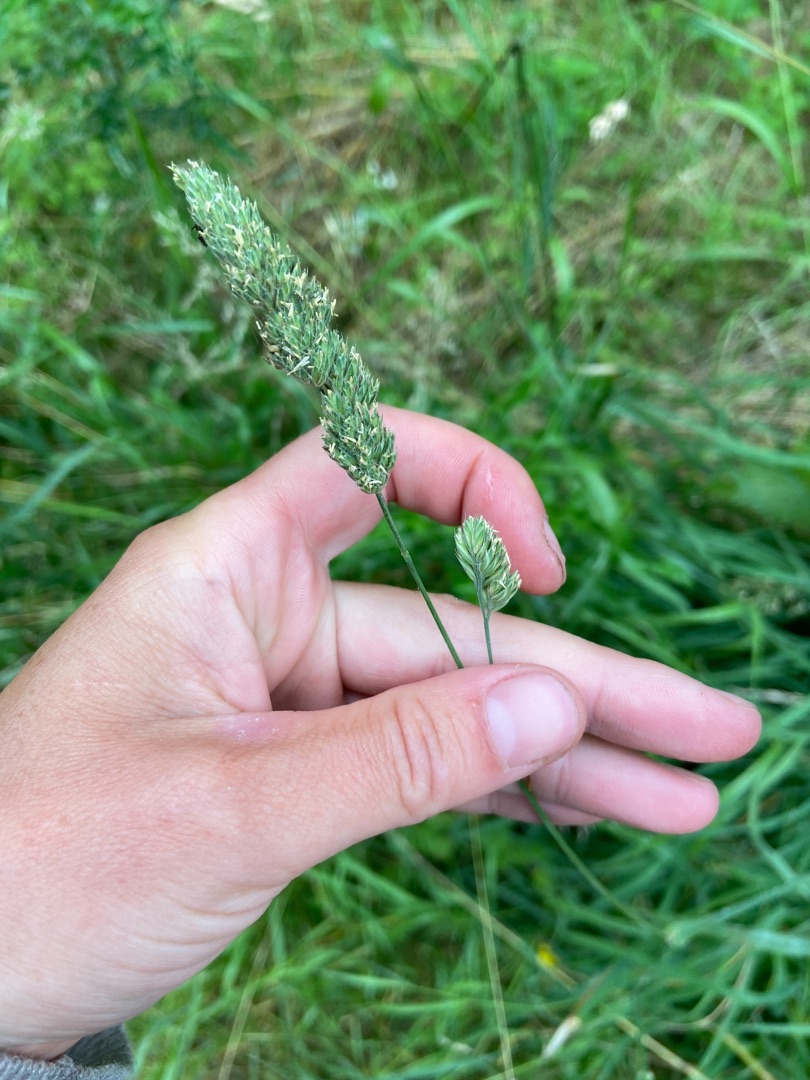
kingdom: Plantae
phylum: Tracheophyta
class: Liliopsida
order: Poales
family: Poaceae
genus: Dactylis
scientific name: Dactylis glomerata
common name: Almindelig hundegræs
